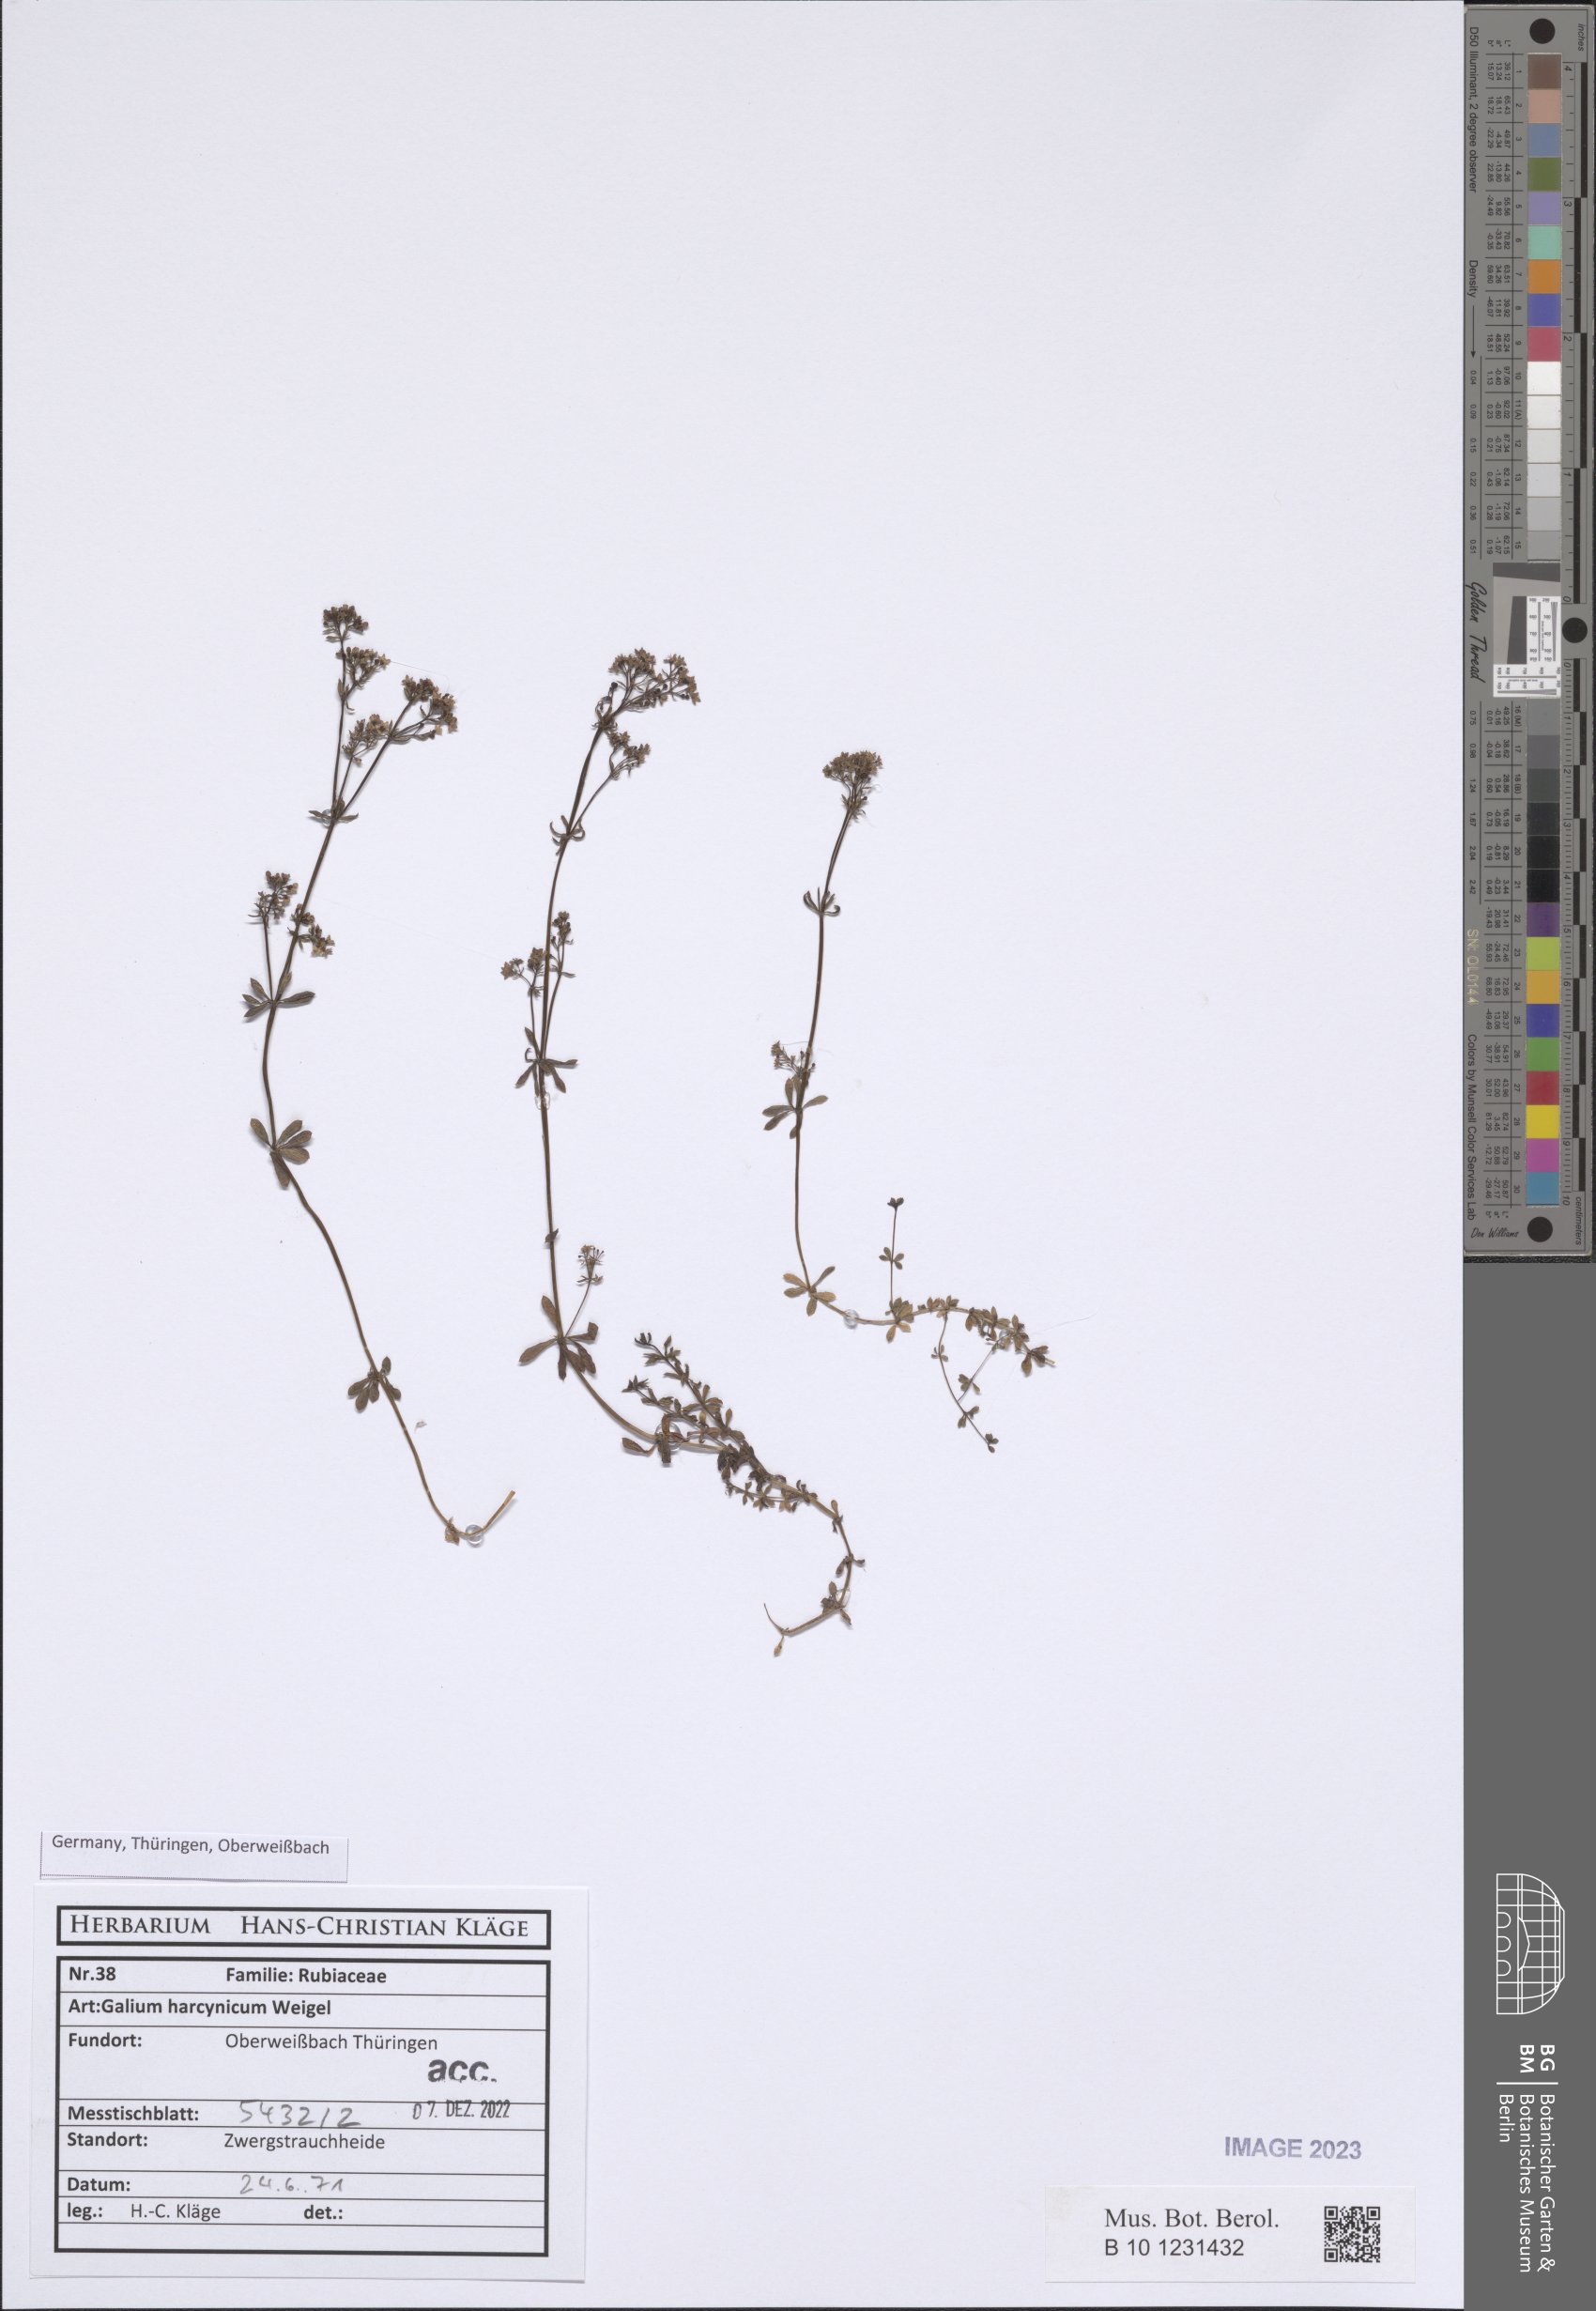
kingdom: Plantae
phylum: Tracheophyta
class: Magnoliopsida
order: Gentianales
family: Rubiaceae
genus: Galium
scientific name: Galium saxatile
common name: Heath bedstraw
